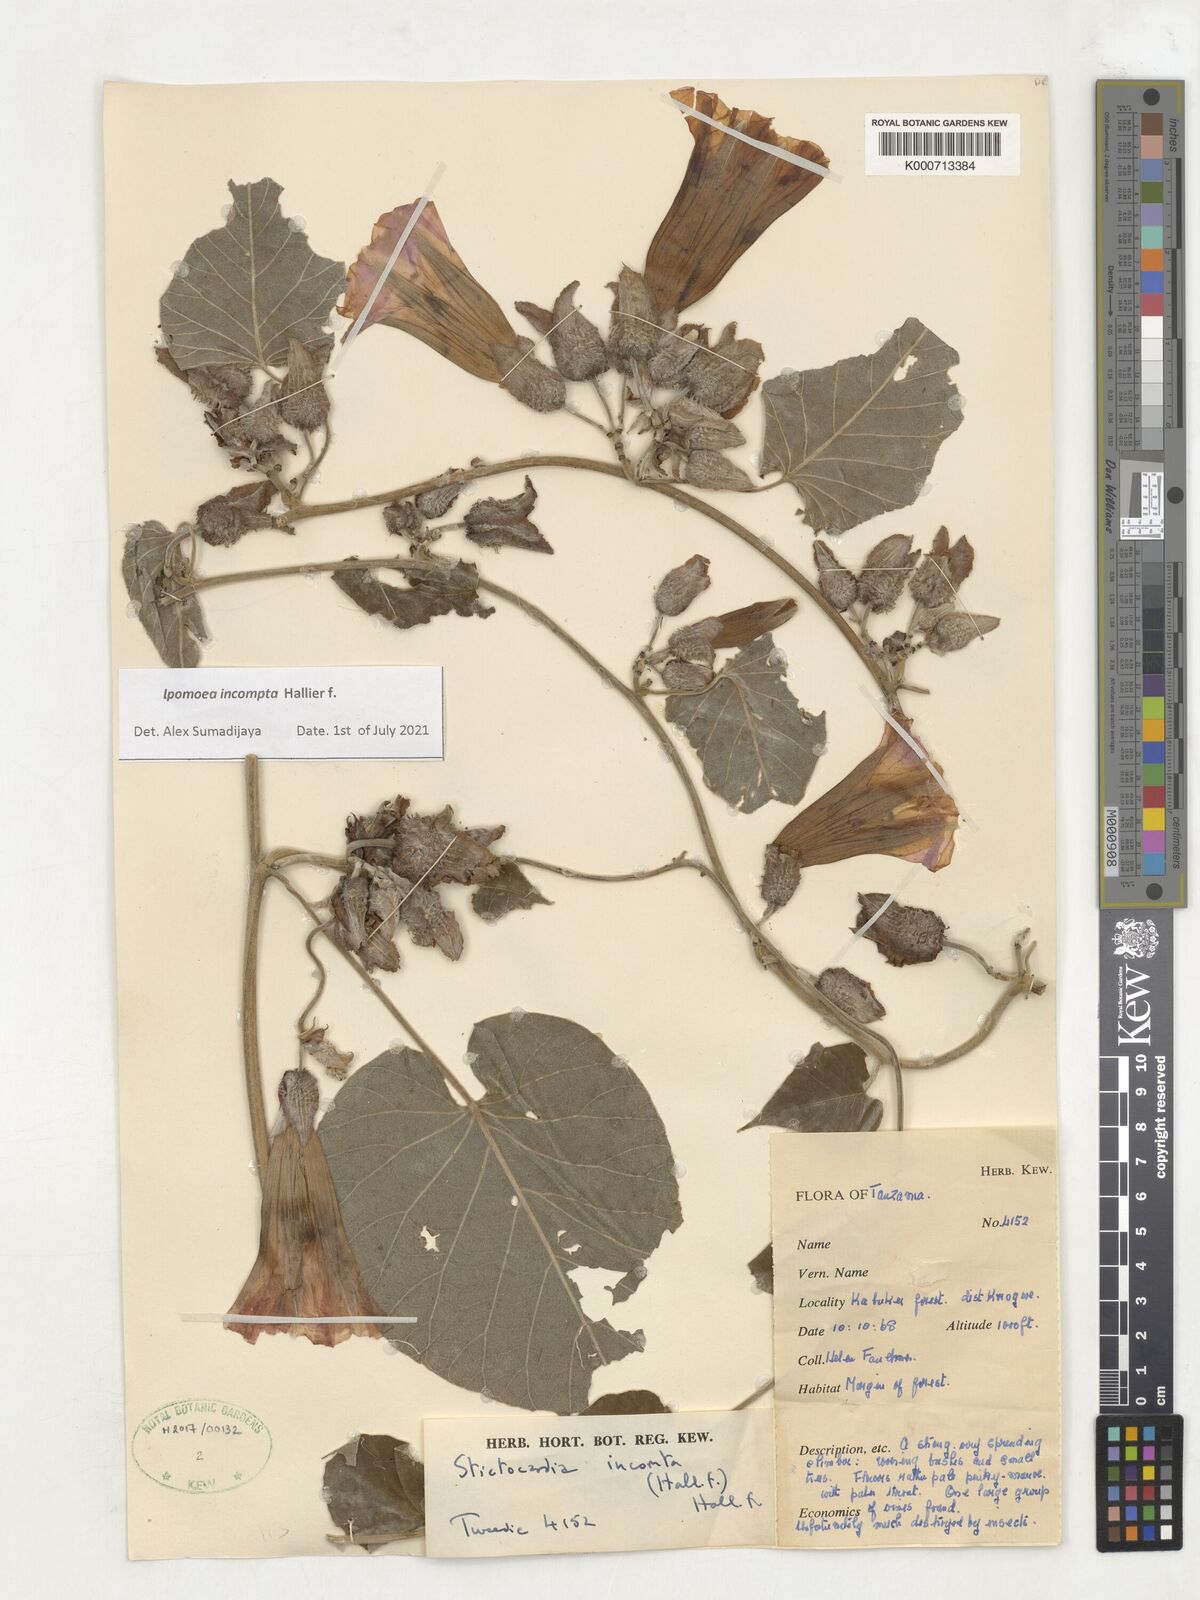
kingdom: Plantae
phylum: Tracheophyta
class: Magnoliopsida
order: Solanales
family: Convolvulaceae
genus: Stictocardia
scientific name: Stictocardia incomta
